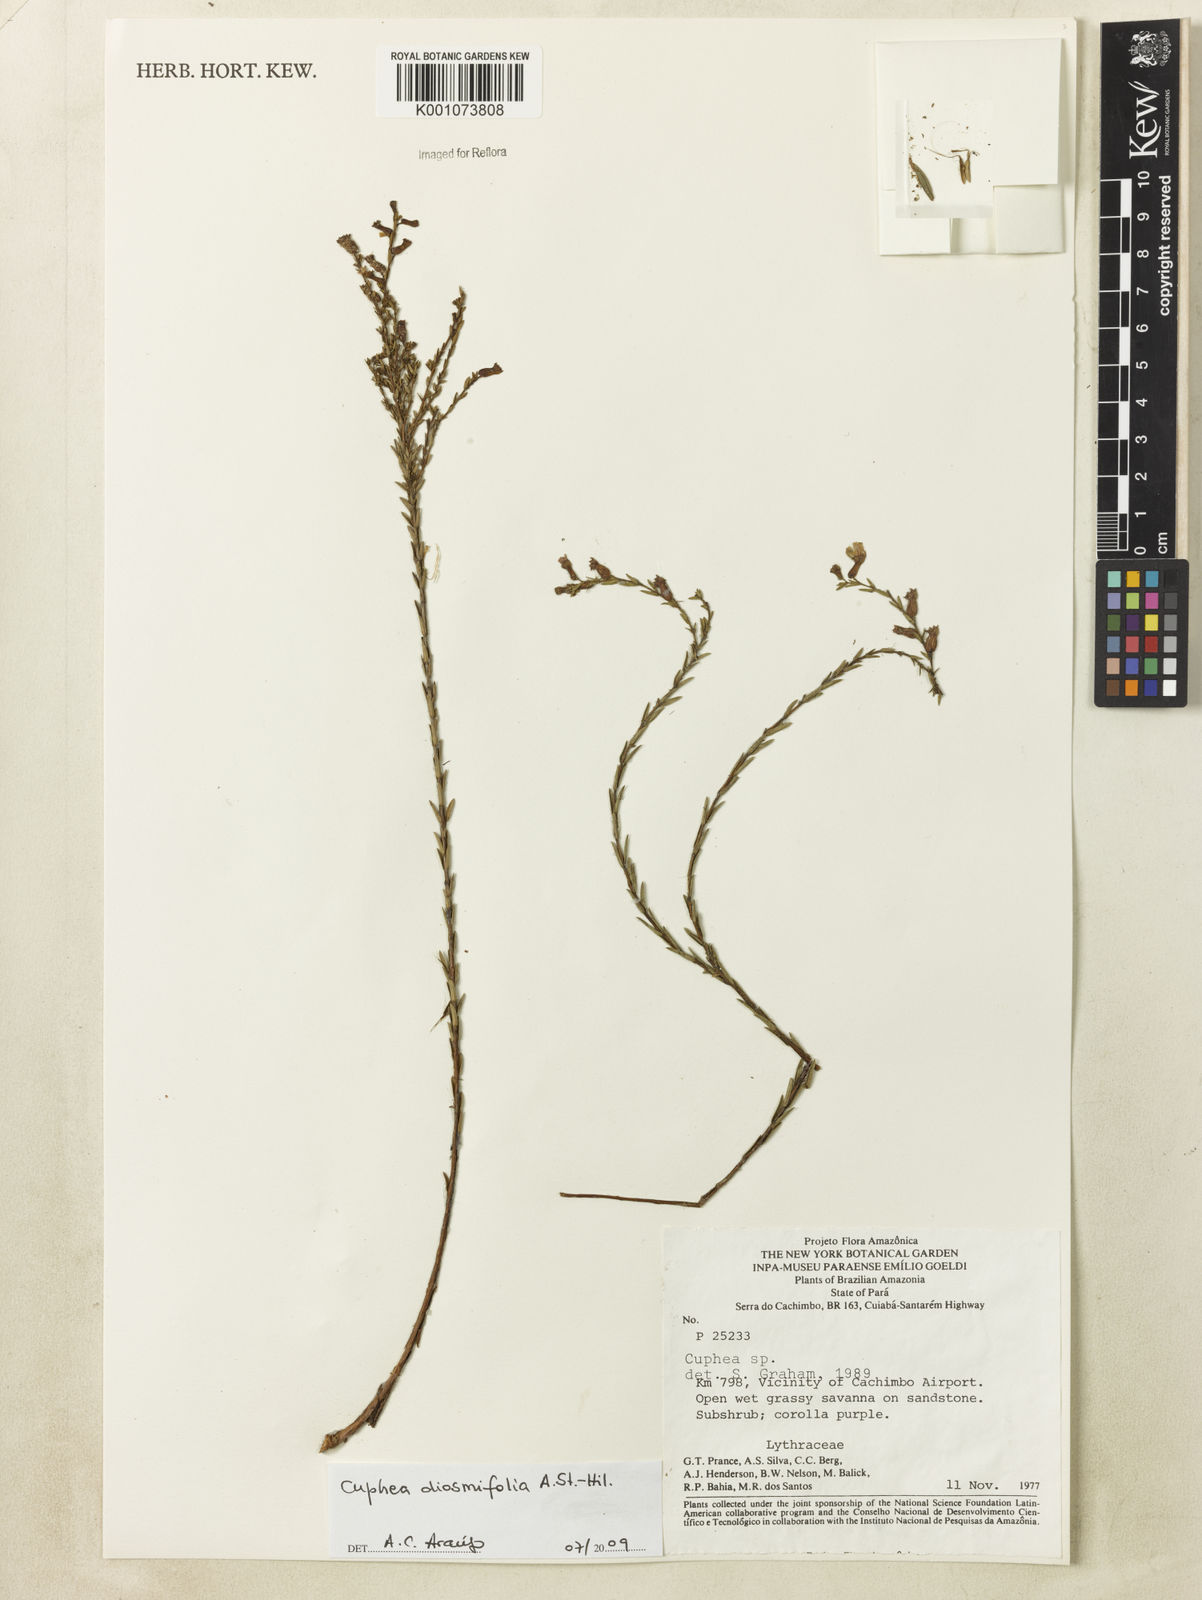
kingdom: Plantae
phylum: Tracheophyta
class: Magnoliopsida
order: Myrtales
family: Lythraceae
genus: Cuphea
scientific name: Cuphea diosmifolia
